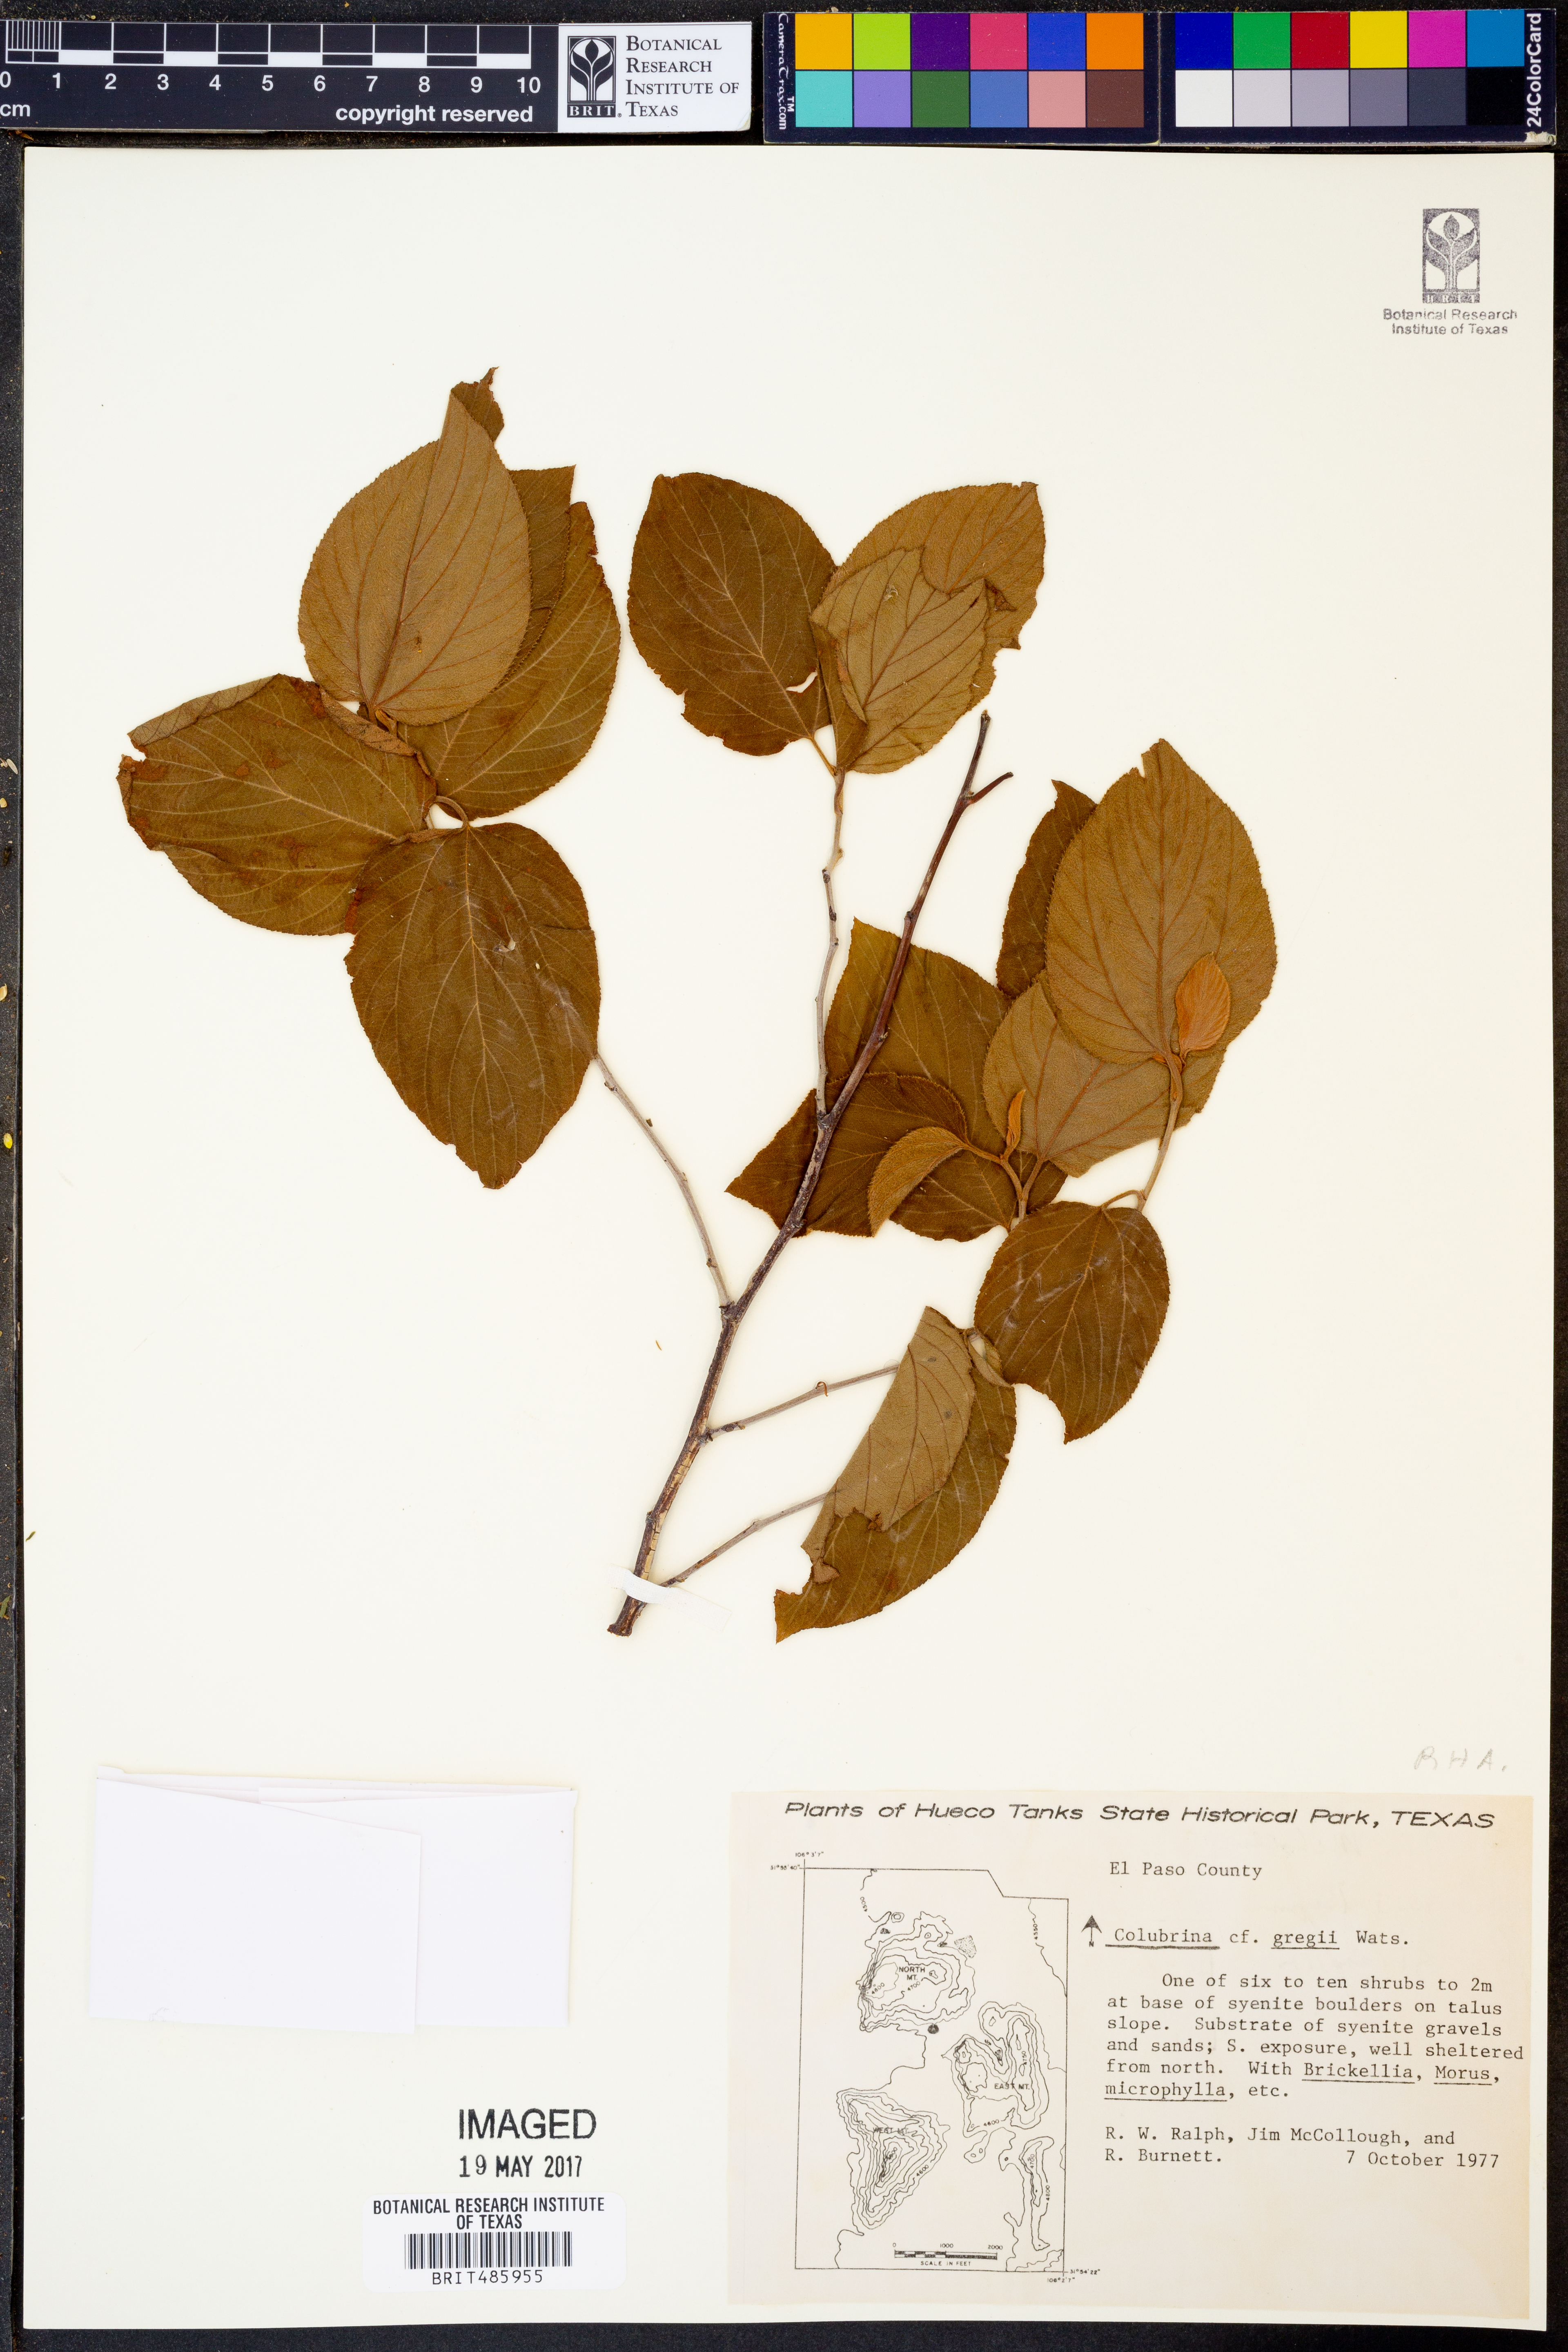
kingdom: Plantae
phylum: Tracheophyta
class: Magnoliopsida
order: Rosales
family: Rhamnaceae
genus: Colubrina
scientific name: Colubrina greggii
